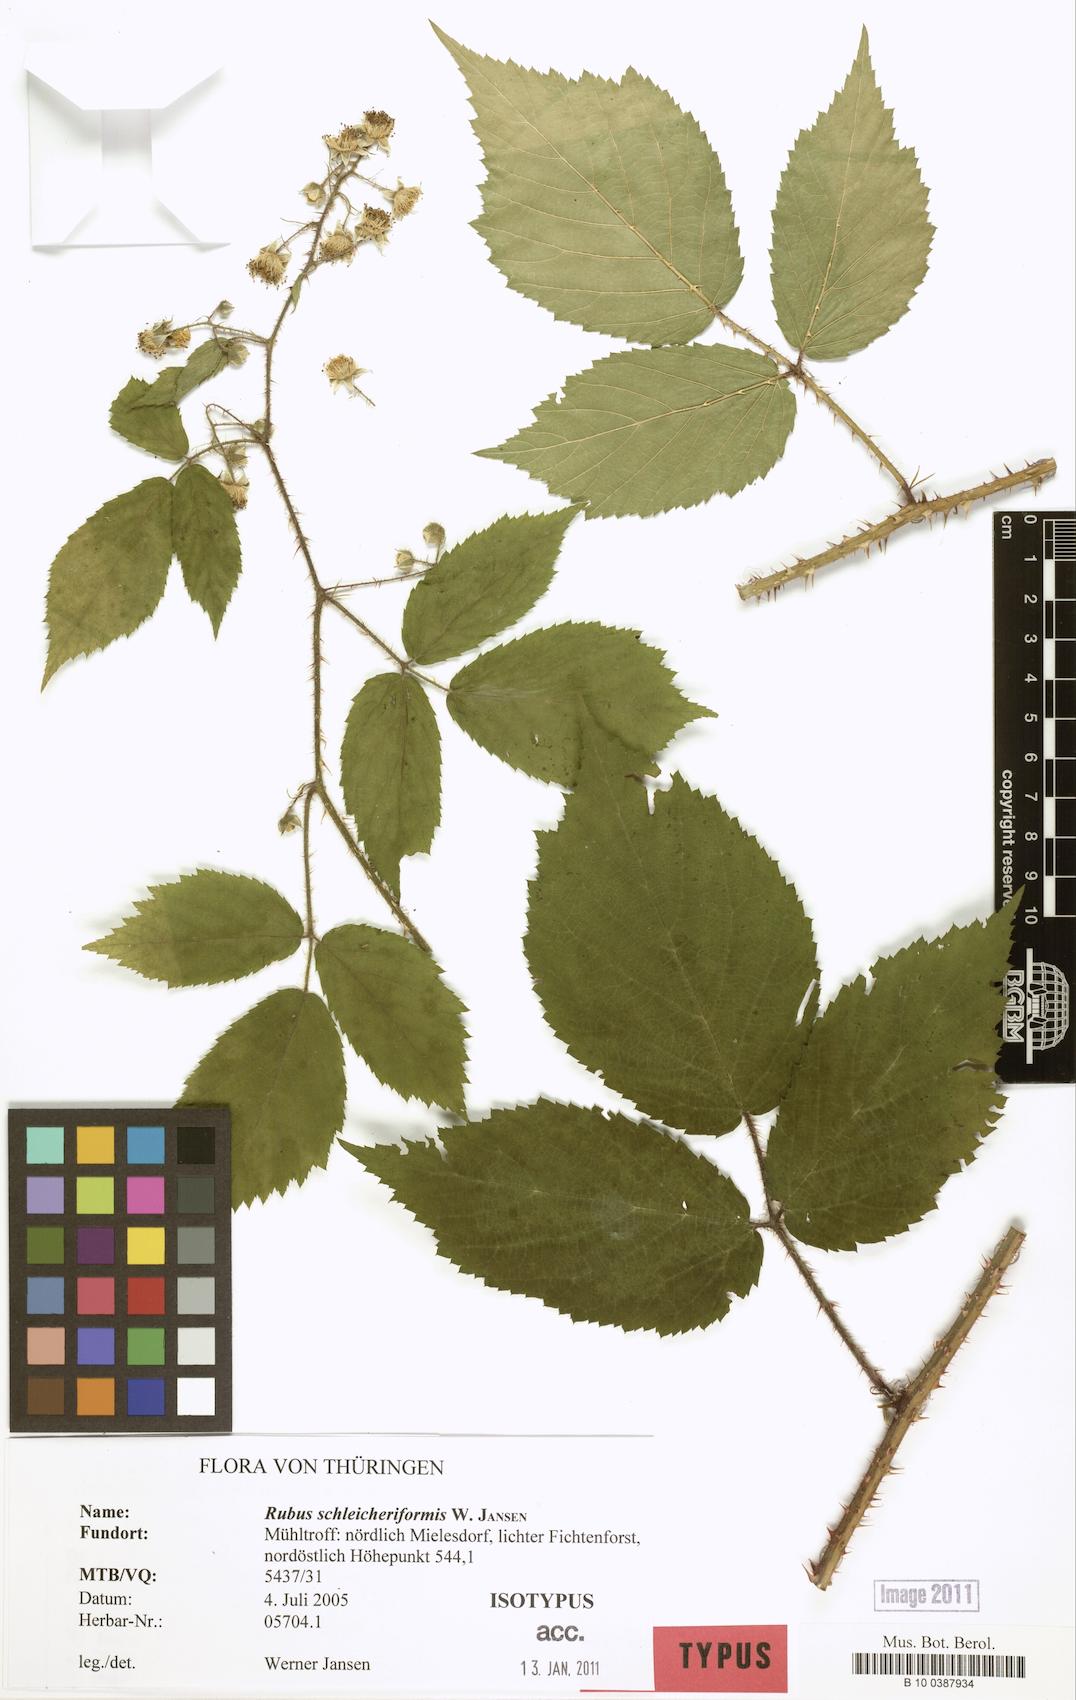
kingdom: Plantae
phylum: Tracheophyta
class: Magnoliopsida
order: Rosales
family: Rosaceae
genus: Rubus
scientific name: Rubus schleicheriformis
